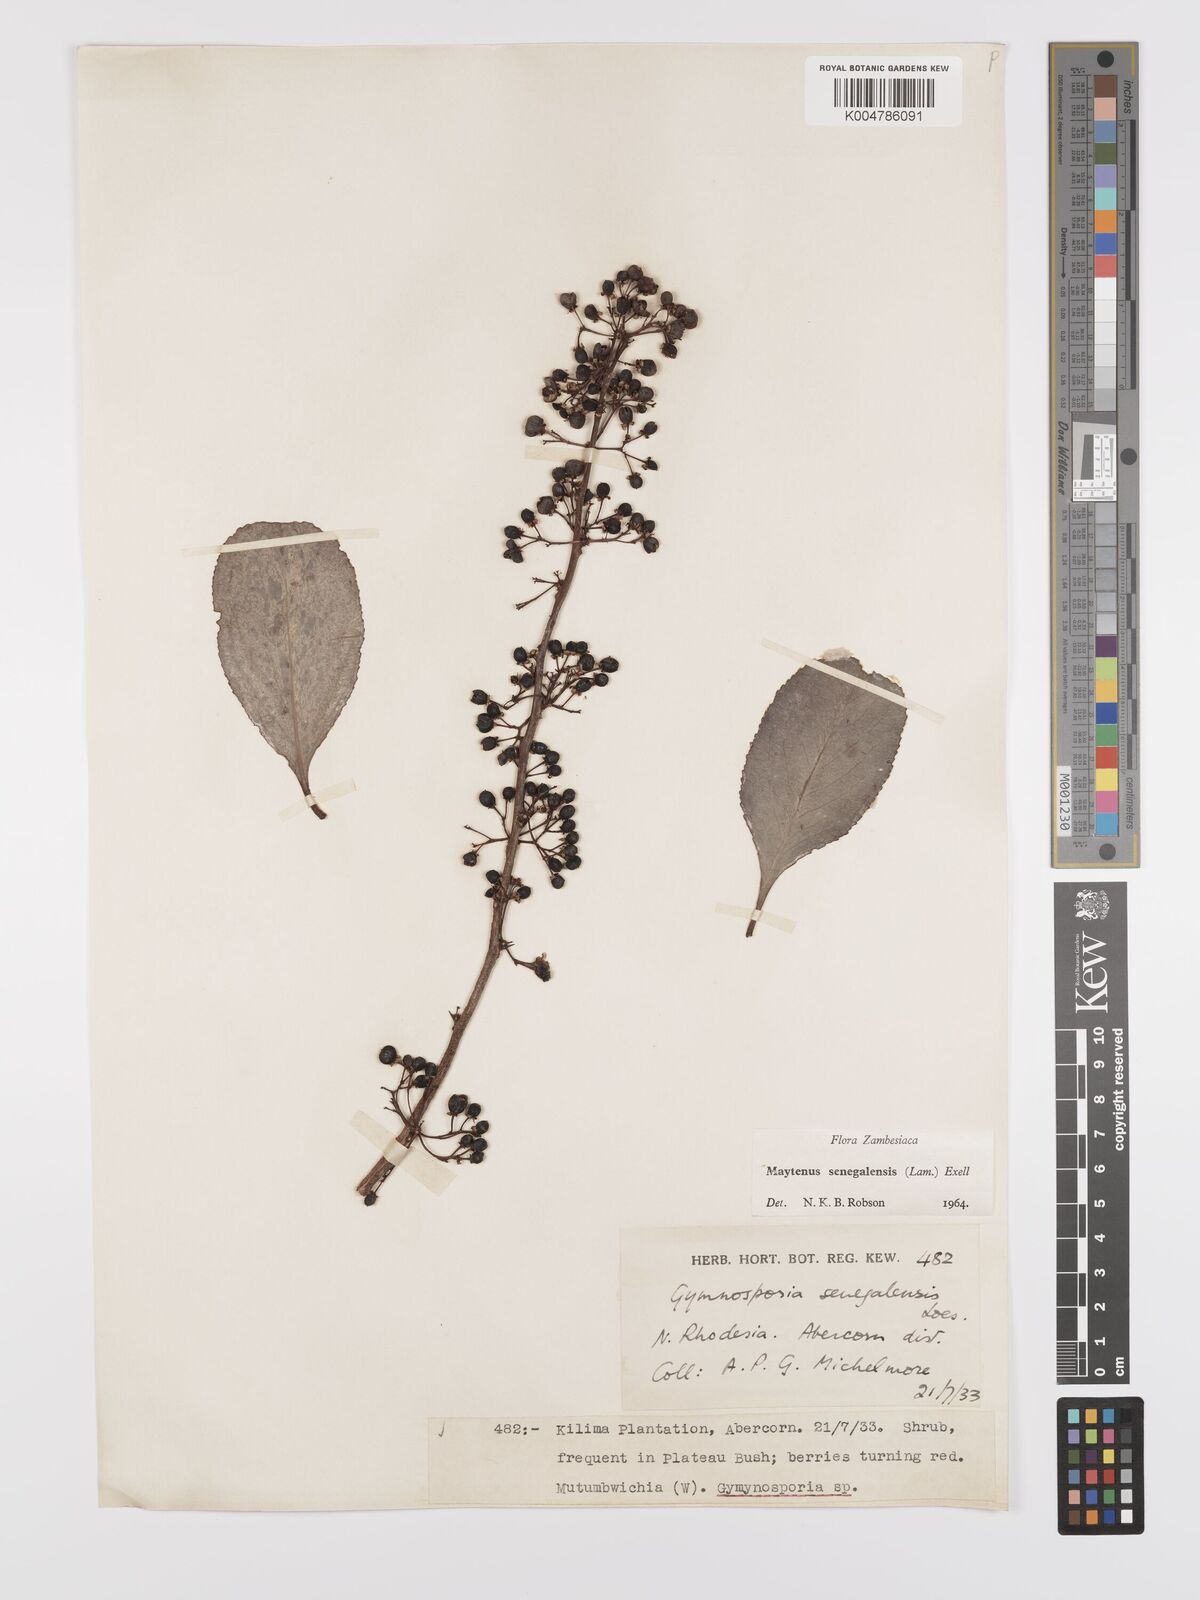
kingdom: Plantae
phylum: Tracheophyta
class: Magnoliopsida
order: Celastrales
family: Celastraceae
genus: Gymnosporia
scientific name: Gymnosporia senegalensis
